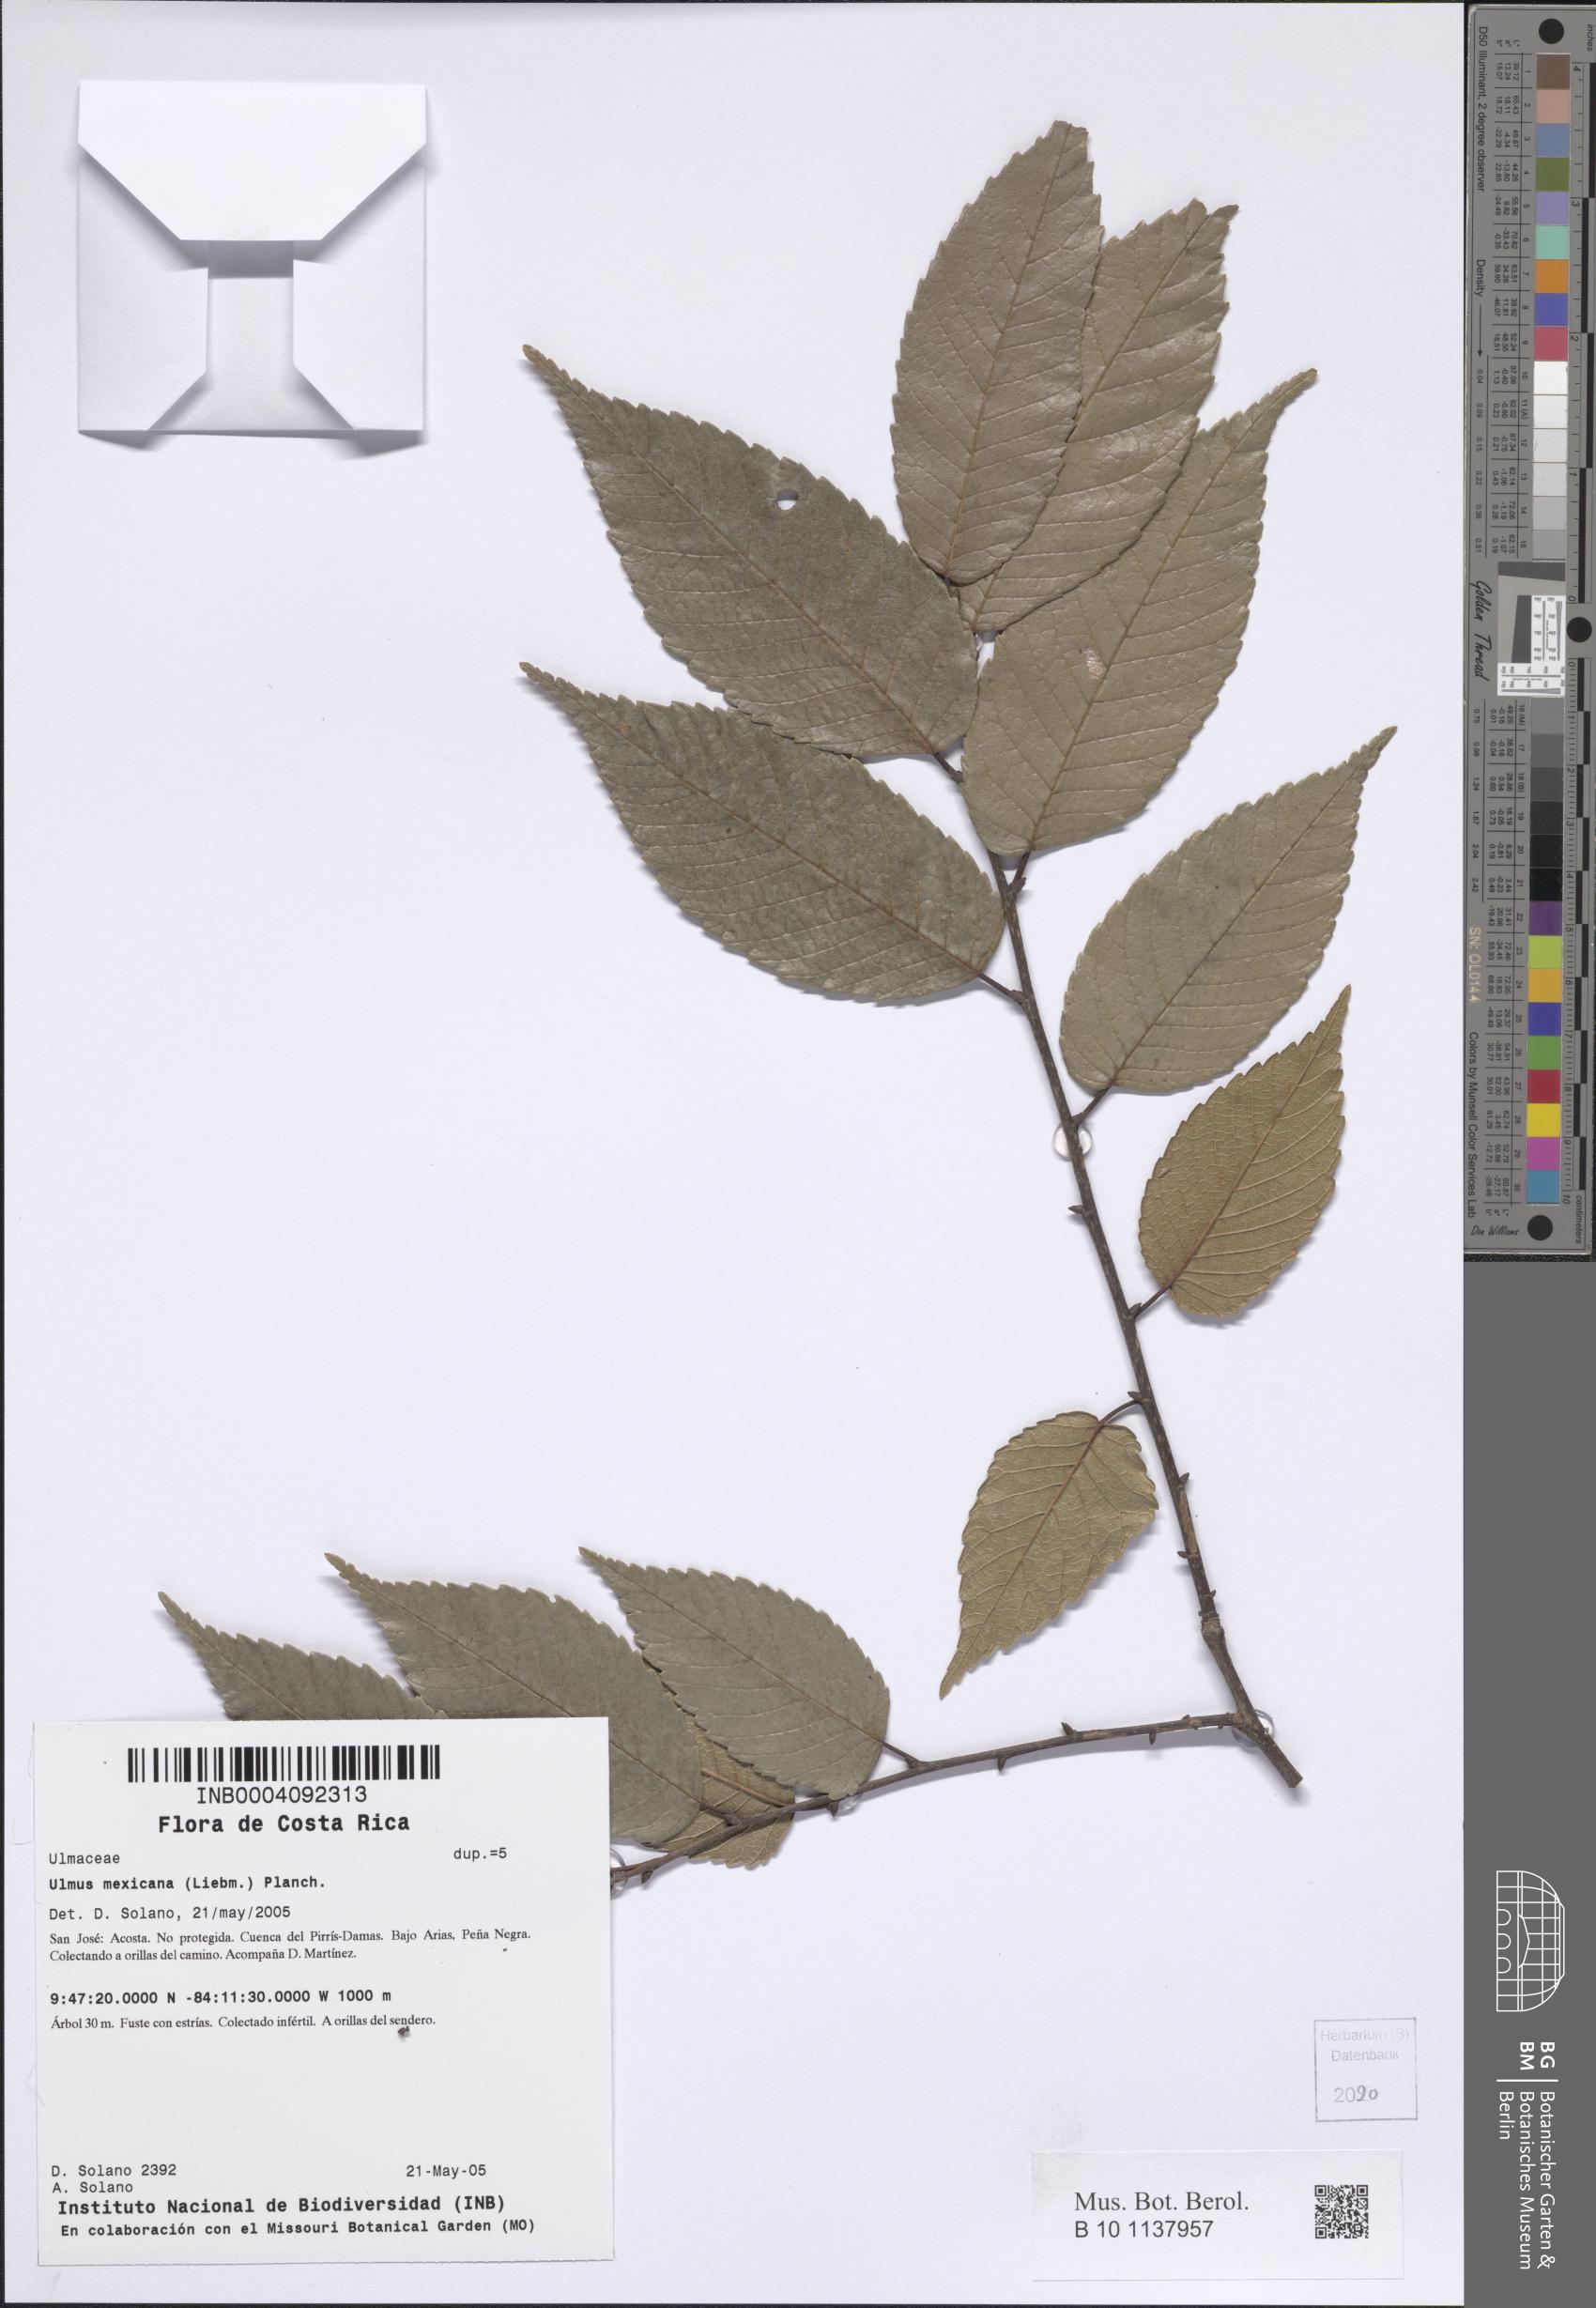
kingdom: Plantae
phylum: Tracheophyta
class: Magnoliopsida
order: Rosales
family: Ulmaceae
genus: Ulmus
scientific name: Ulmus mexicana
